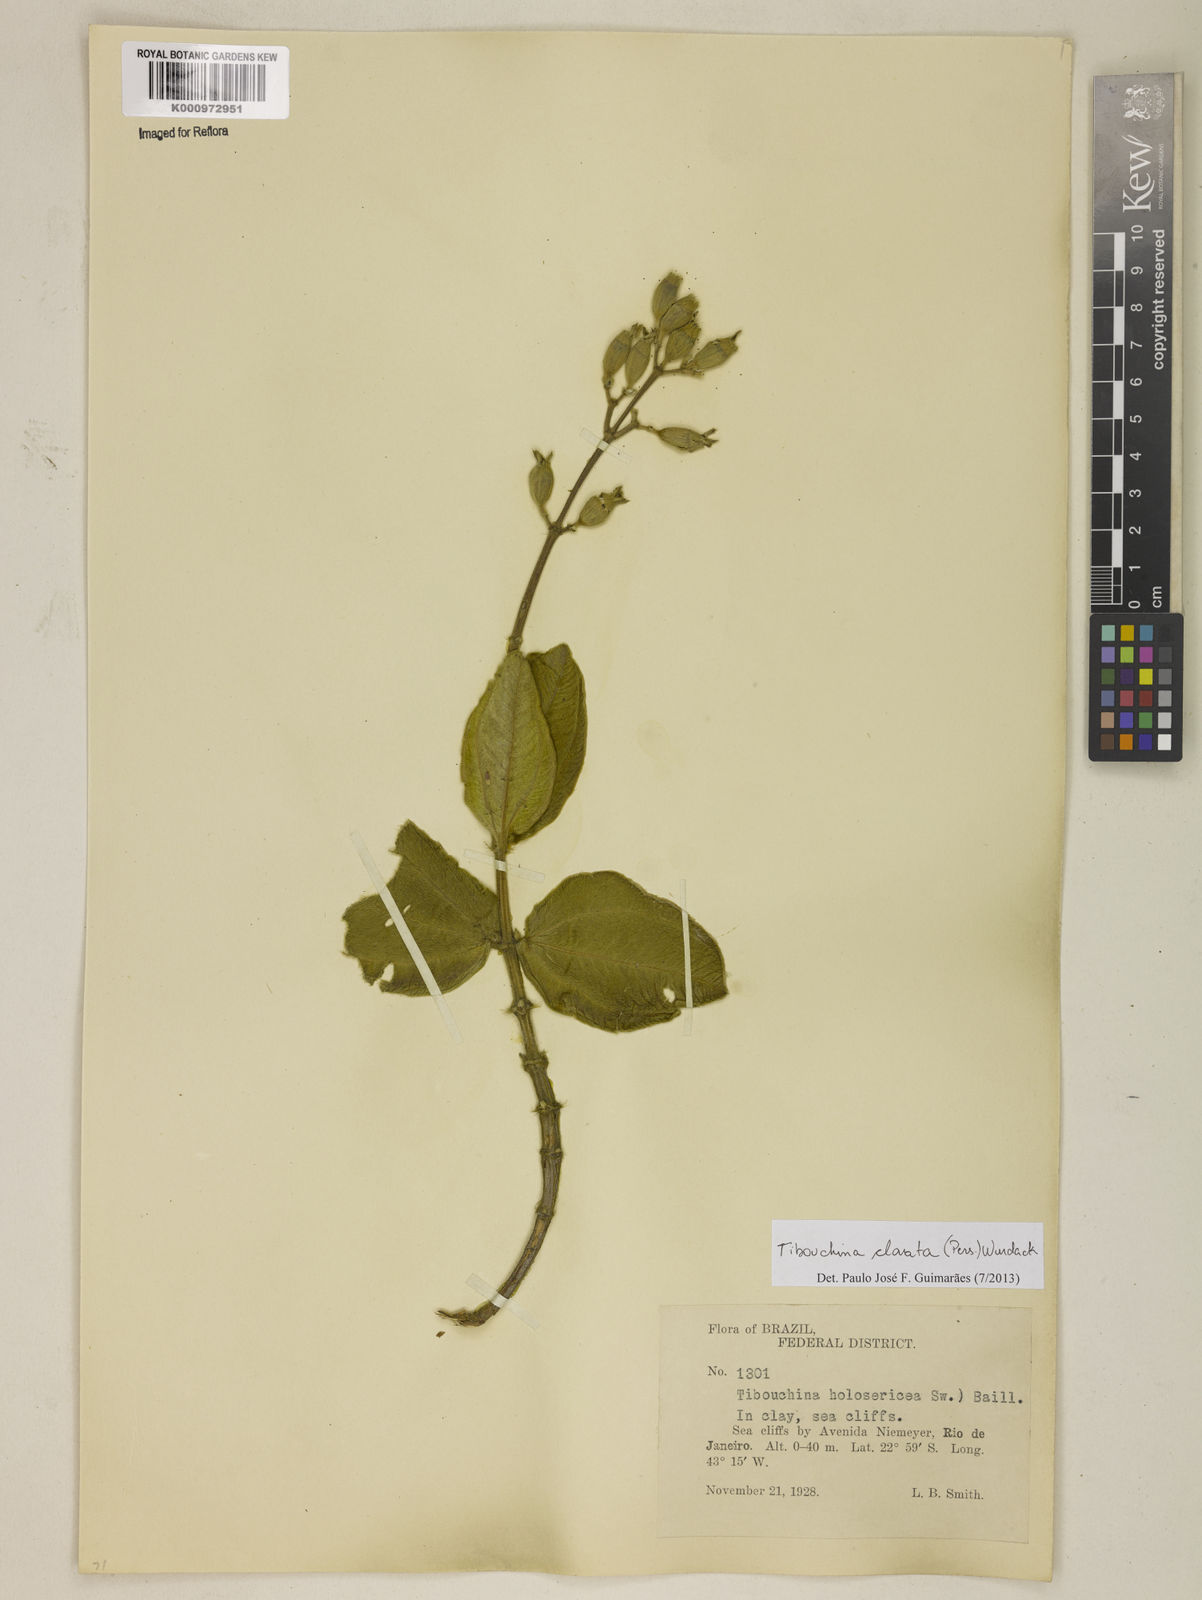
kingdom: Plantae
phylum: Tracheophyta
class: Magnoliopsida
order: Myrtales
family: Melastomataceae
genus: Pleroma
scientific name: Pleroma clavatum
